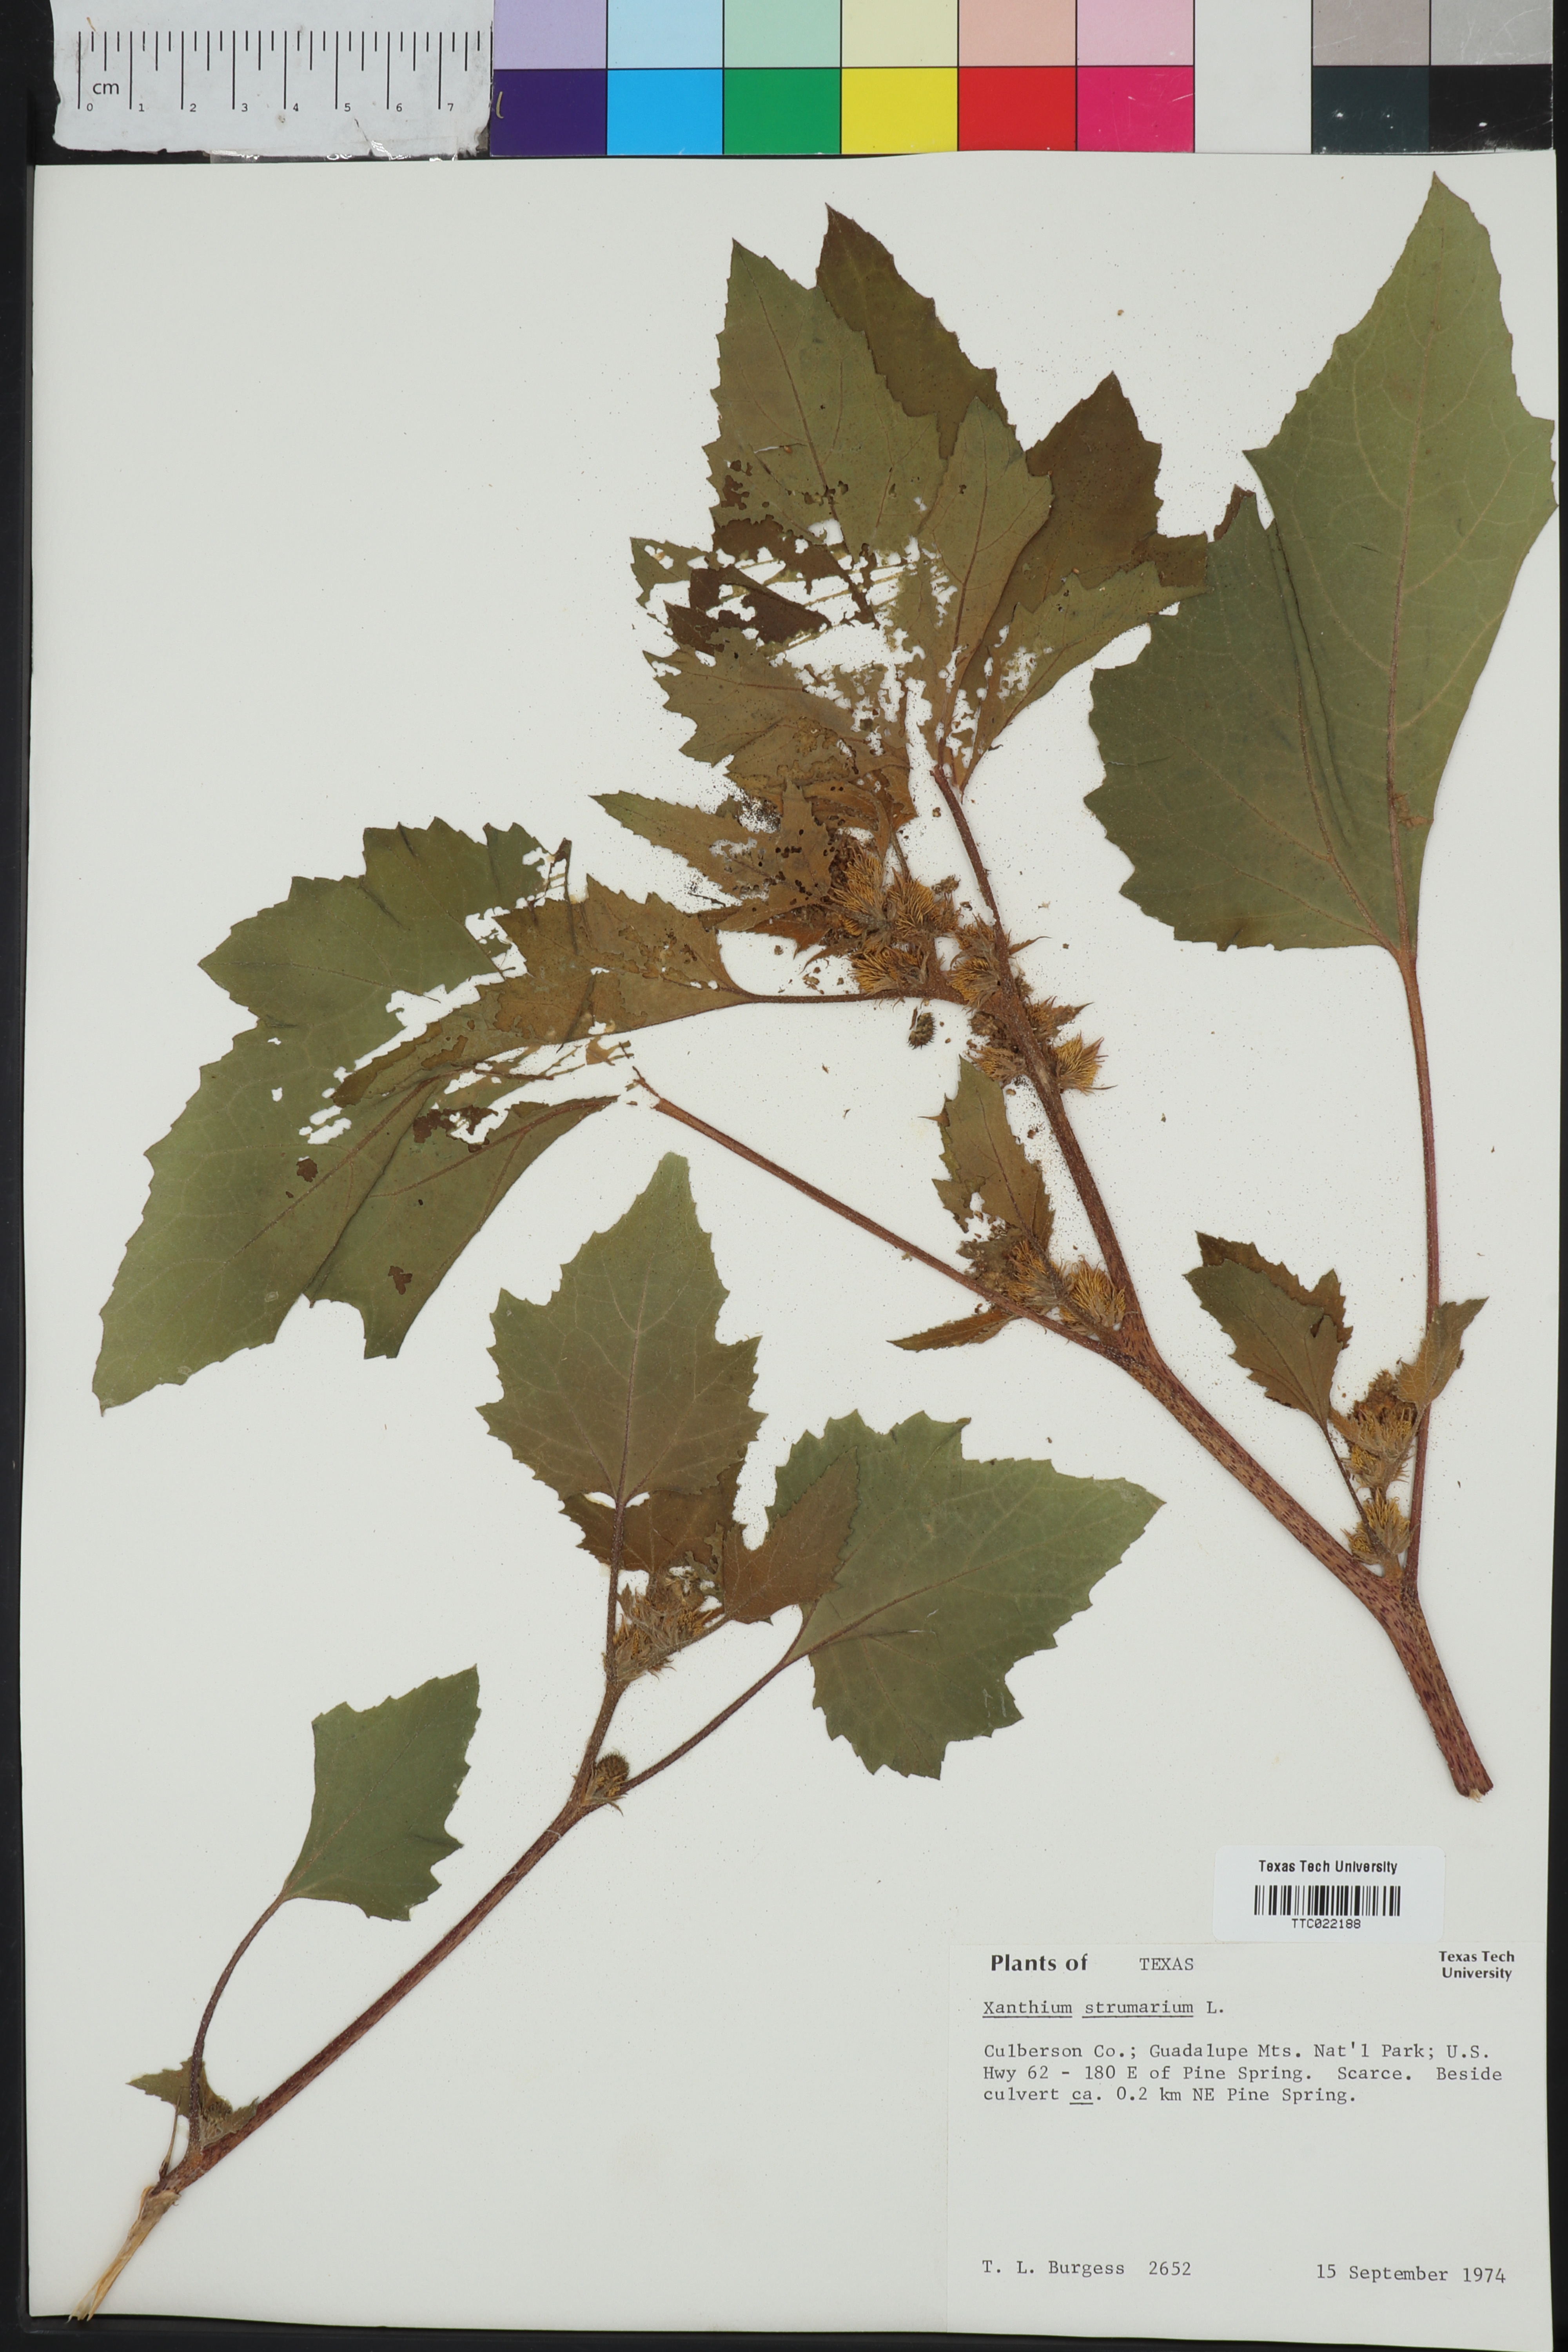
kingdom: Plantae
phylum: Tracheophyta
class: Magnoliopsida
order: Asterales
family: Asteraceae
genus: Xanthium
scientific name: Xanthium strumarium
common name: Rough cocklebur
